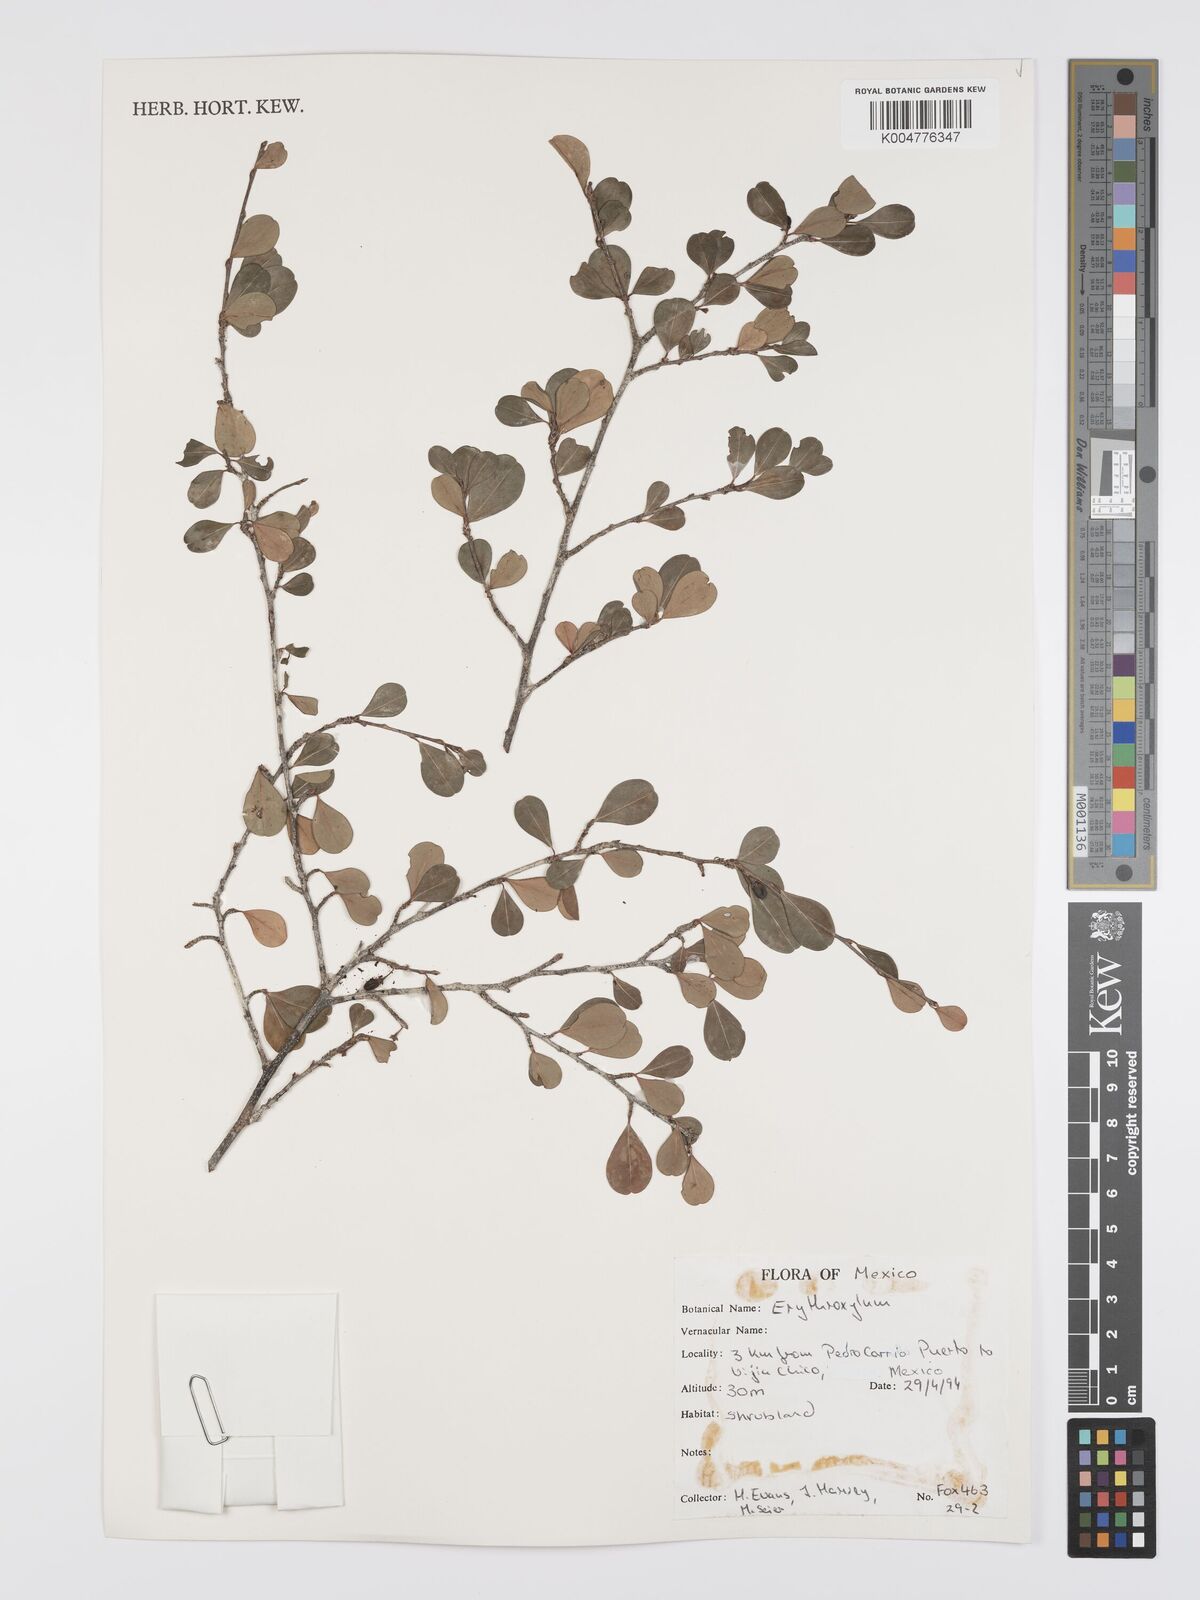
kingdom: Plantae
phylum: Tracheophyta
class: Magnoliopsida
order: Malpighiales
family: Erythroxylaceae
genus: Erythroxylum
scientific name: Erythroxylum
